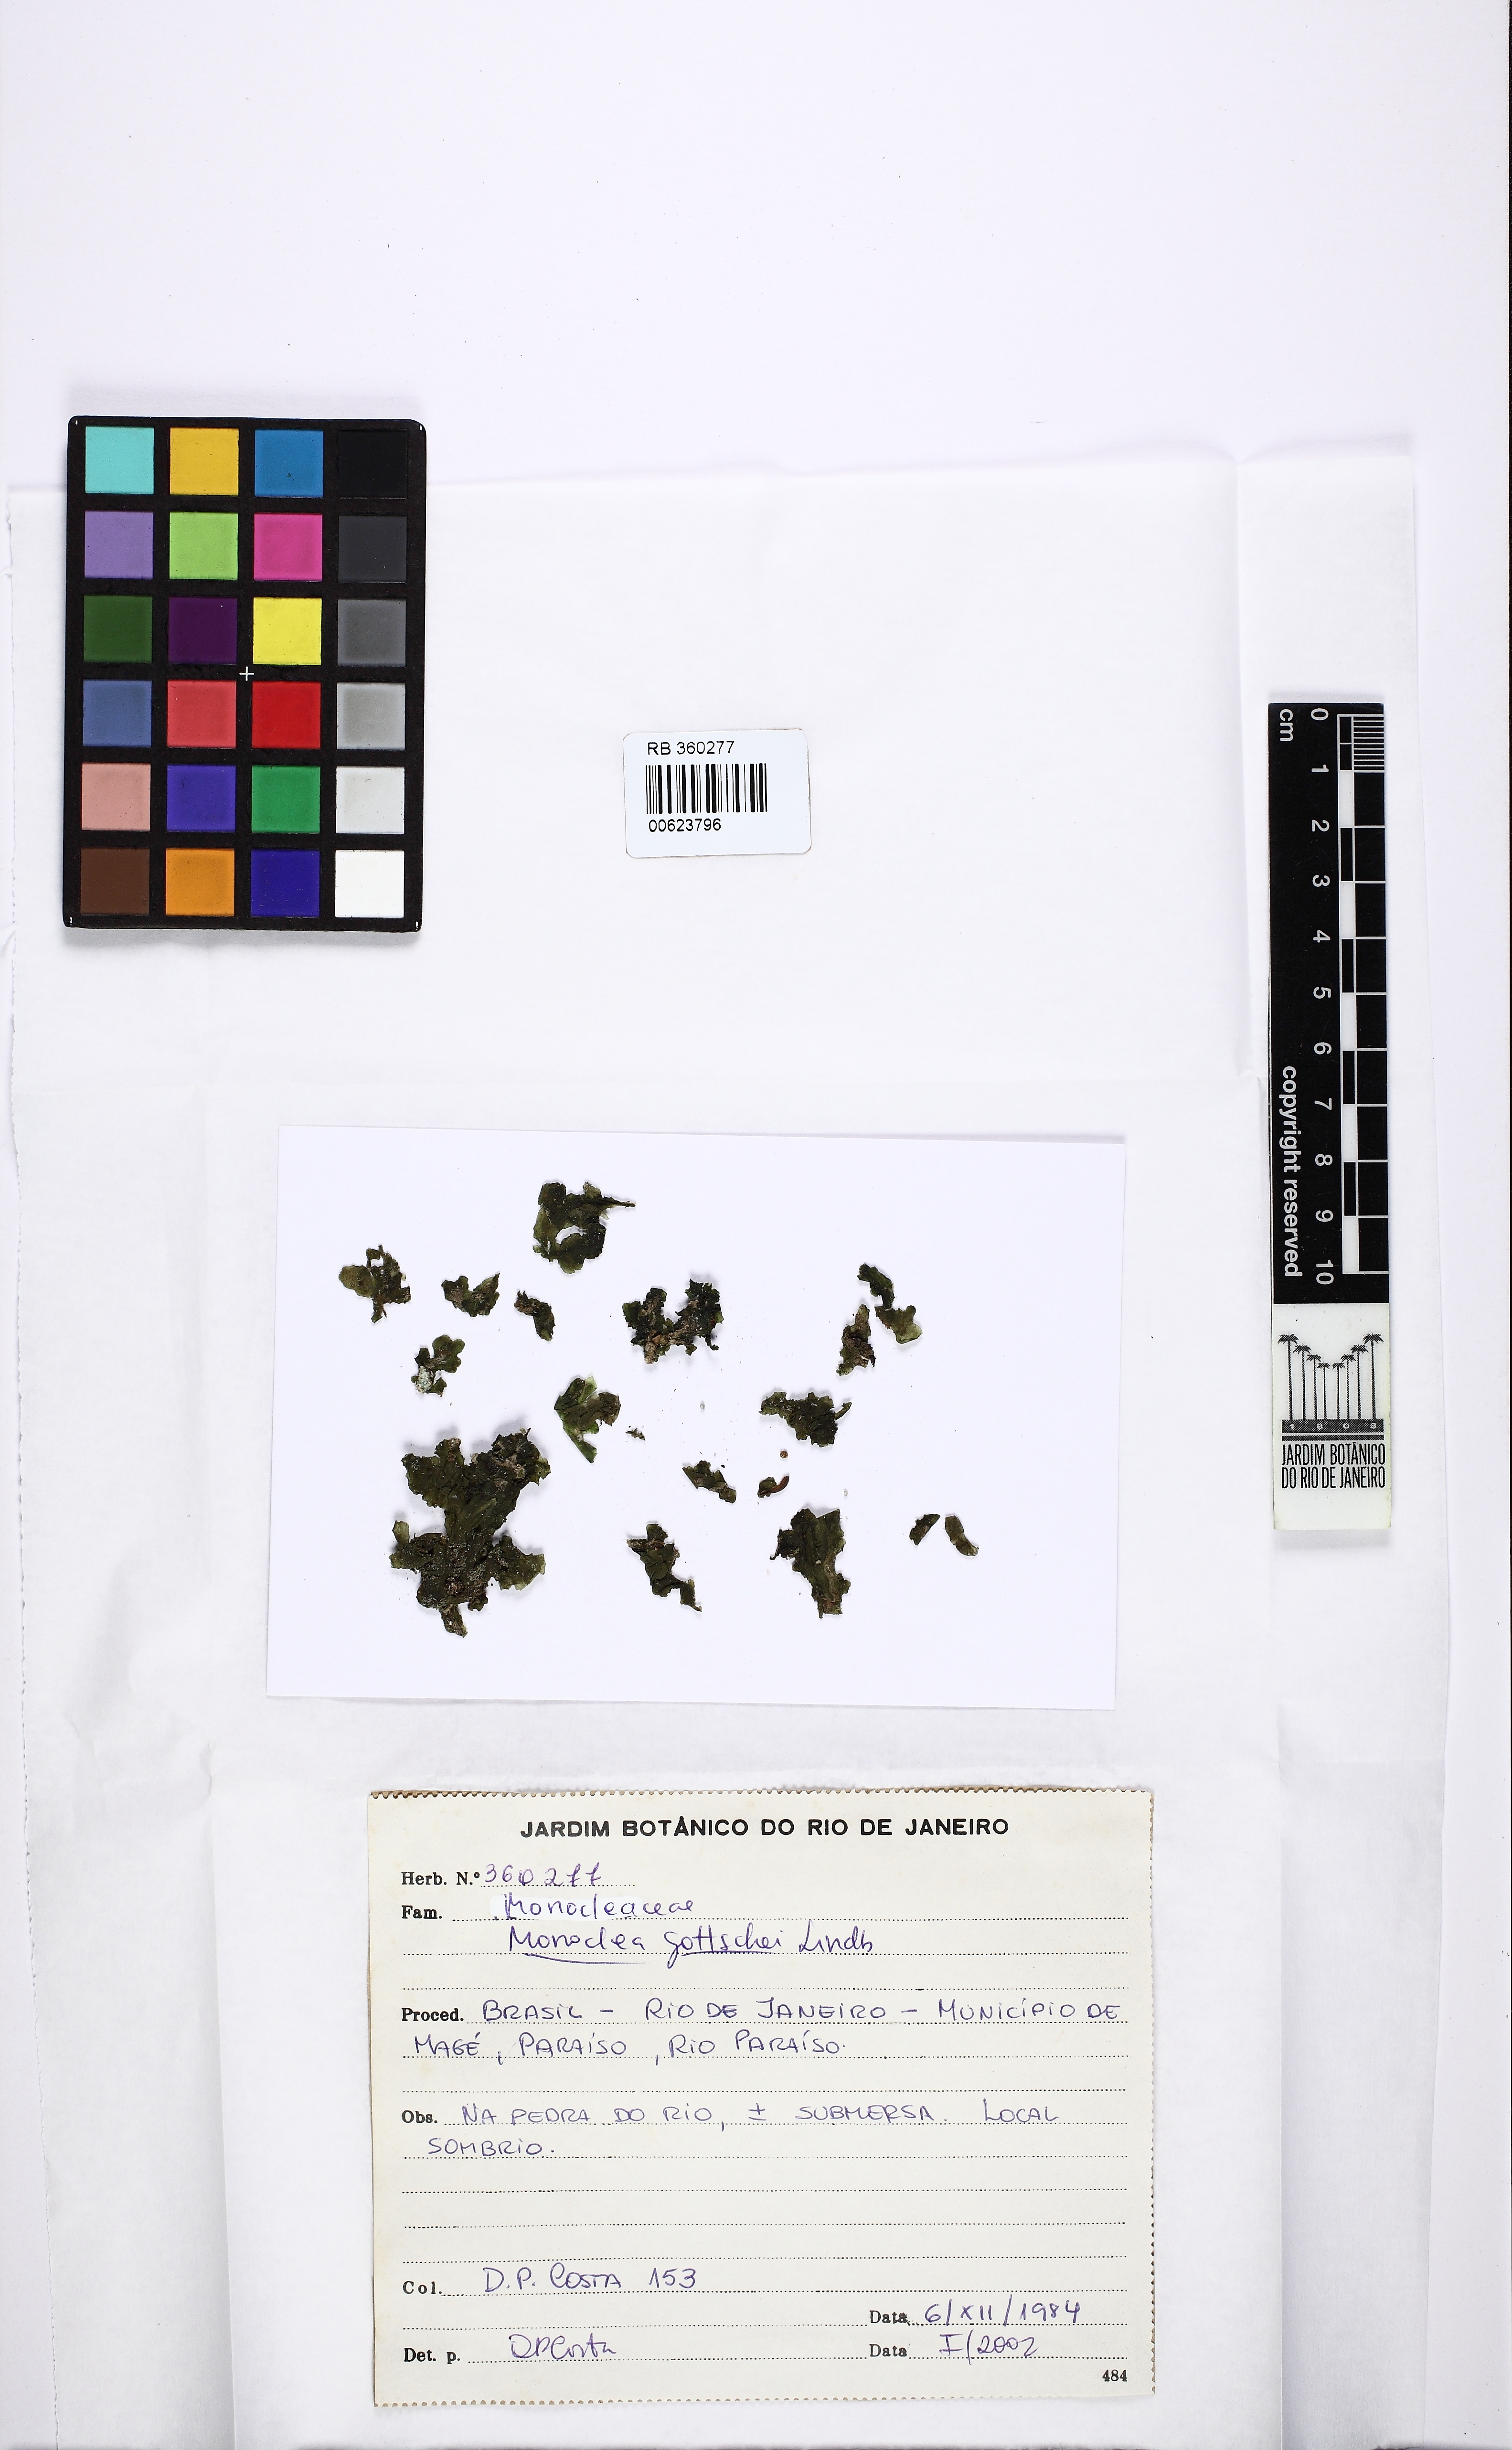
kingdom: Plantae
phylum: Marchantiophyta
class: Marchantiopsida
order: Marchantiales
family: Monocleaceae
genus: Monoclea
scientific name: Monoclea gottschei
